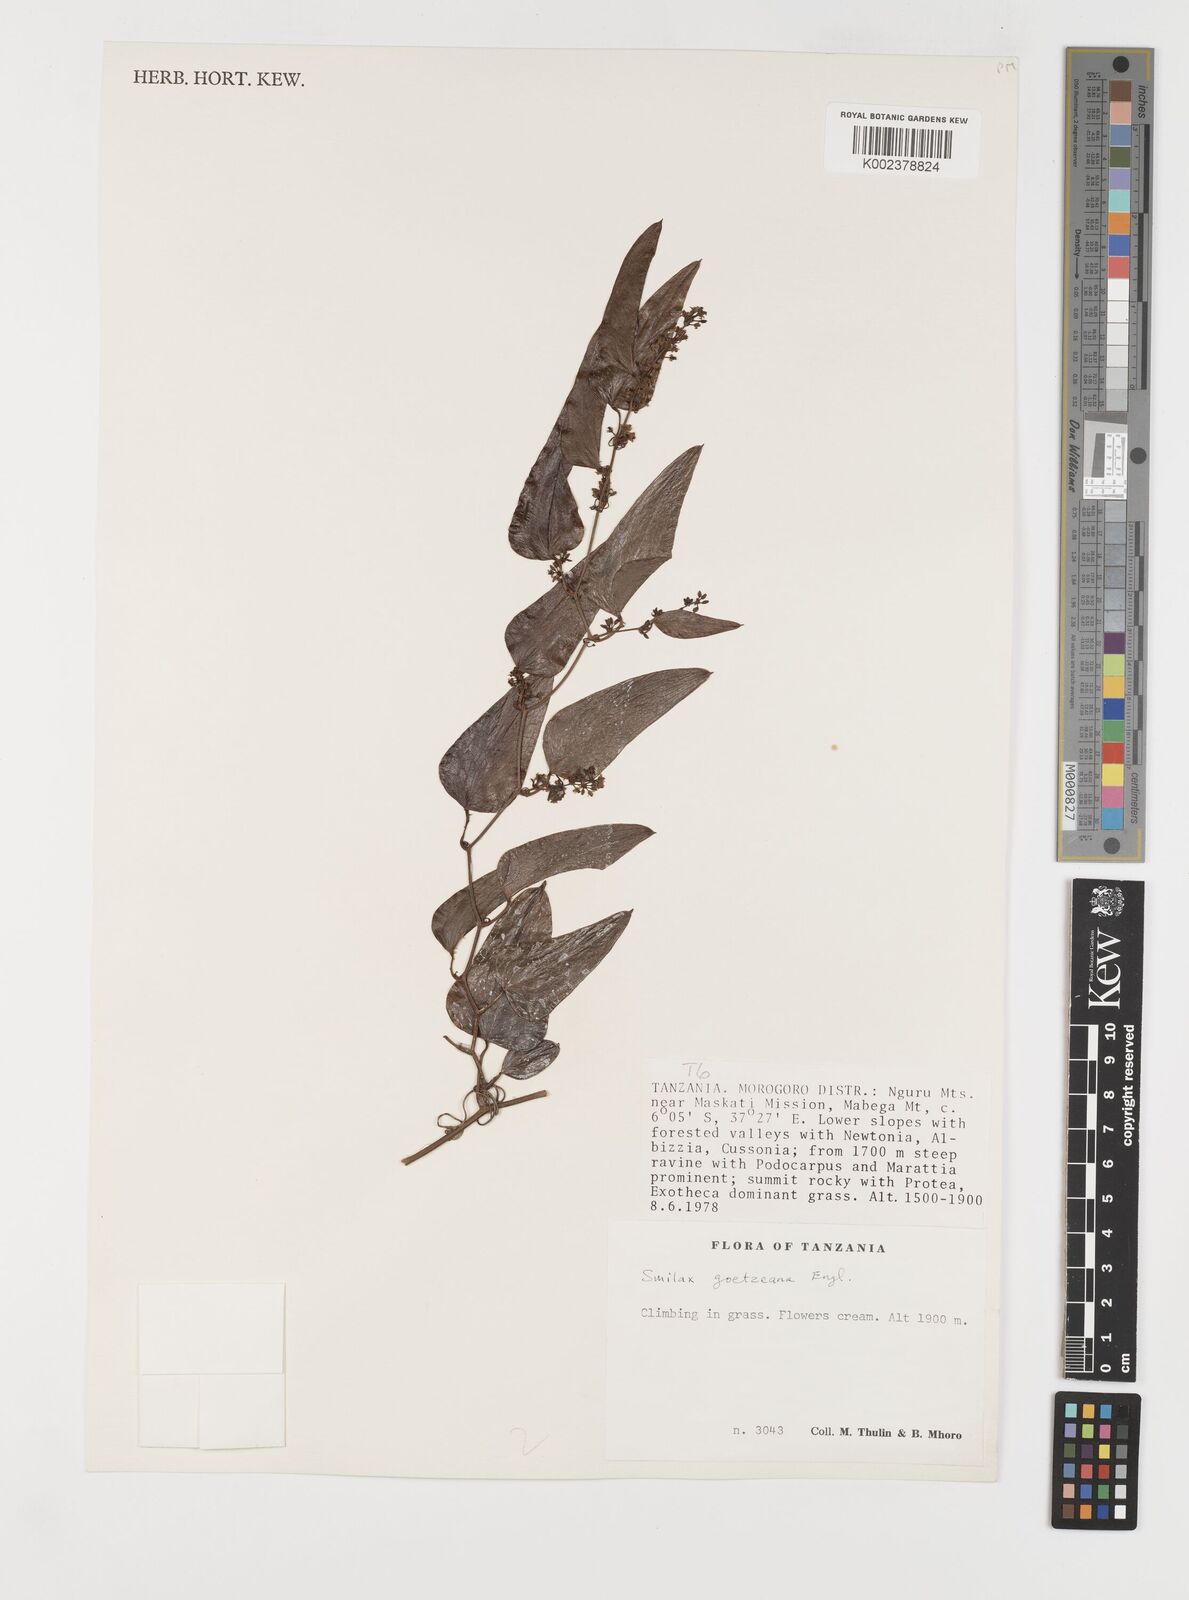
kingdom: Plantae
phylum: Tracheophyta
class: Liliopsida
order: Liliales
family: Smilacaceae
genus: Smilax
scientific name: Smilax aspera
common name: Common smilax
